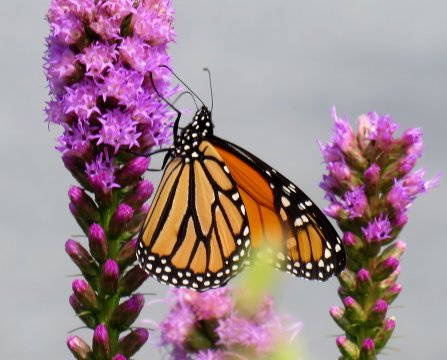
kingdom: Animalia
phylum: Arthropoda
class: Insecta
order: Lepidoptera
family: Nymphalidae
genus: Danaus
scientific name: Danaus plexippus
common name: Monarch
